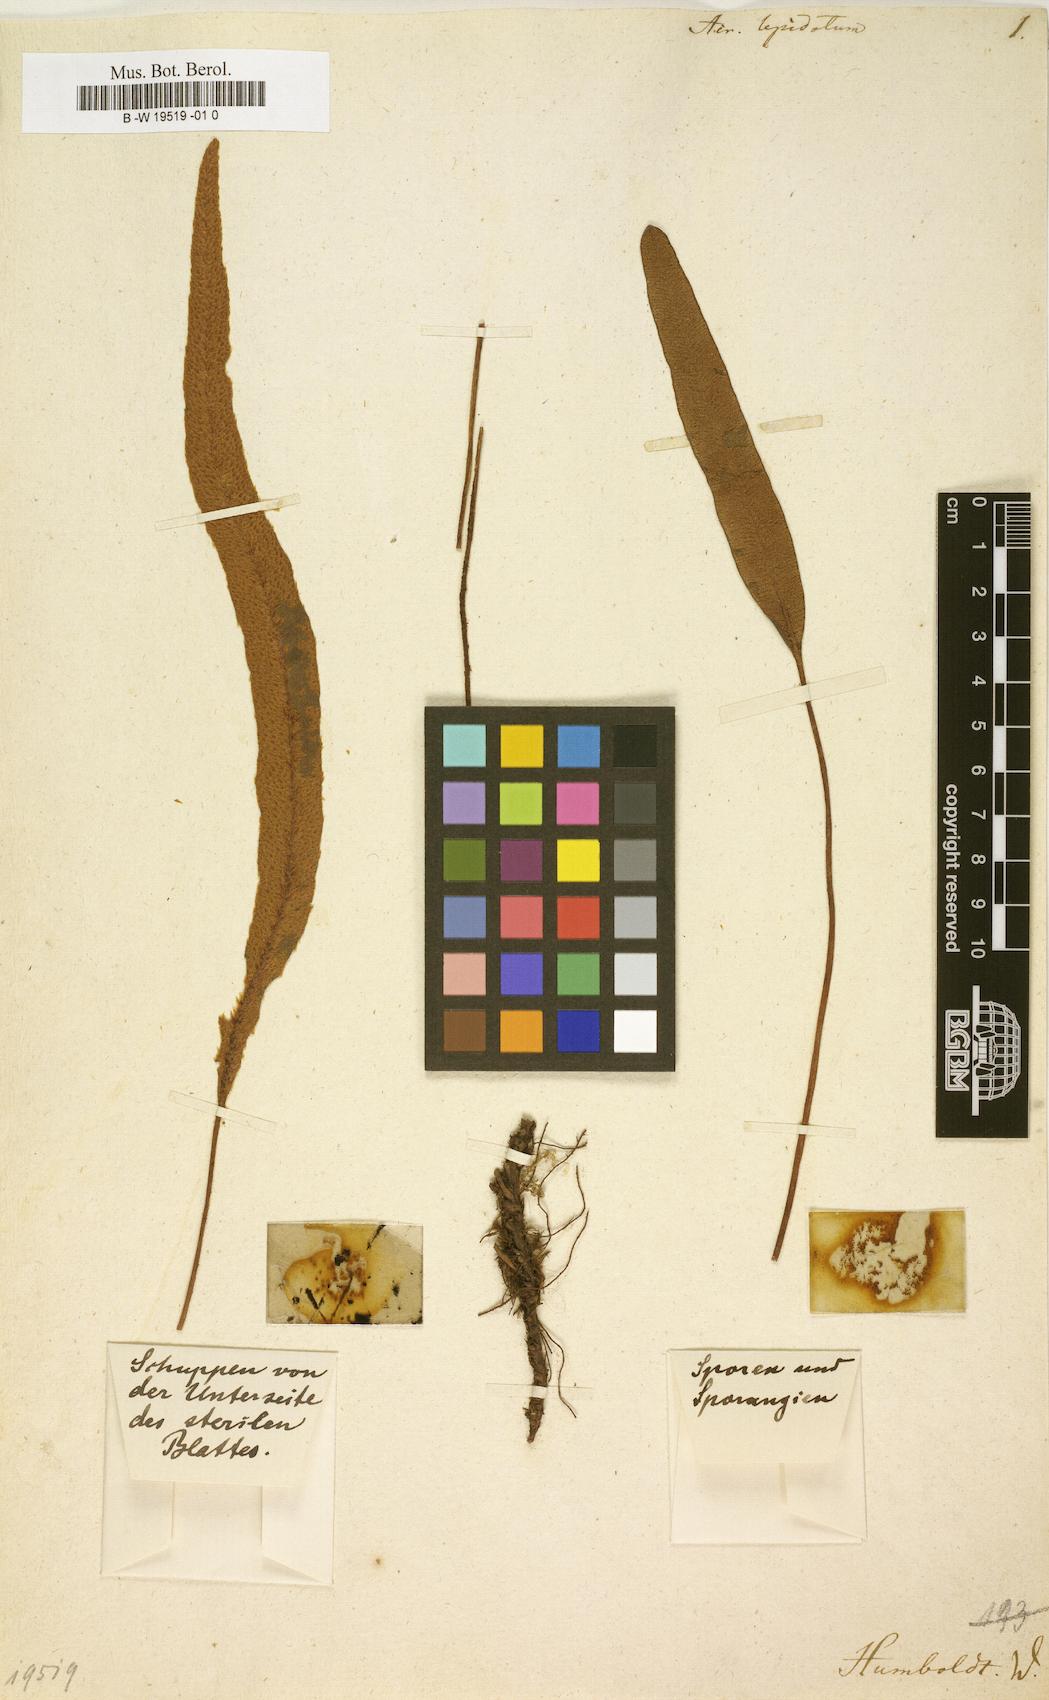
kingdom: Plantae
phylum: Tracheophyta
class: Polypodiopsida
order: Polypodiales
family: Dryopteridaceae
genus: Elaphoglossum
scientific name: Elaphoglossum lepidotum
